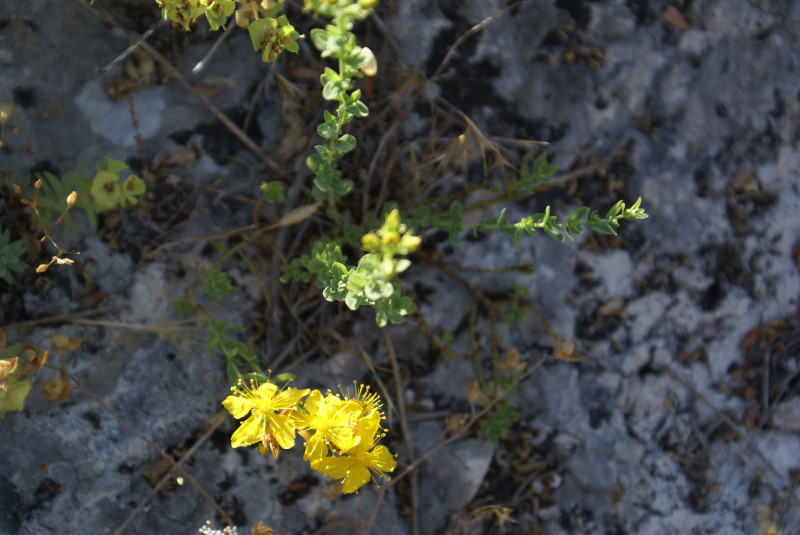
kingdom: Plantae
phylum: Tracheophyta
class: Magnoliopsida
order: Malpighiales
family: Hypericaceae
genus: Hypericum
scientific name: Hypericum perforatum
